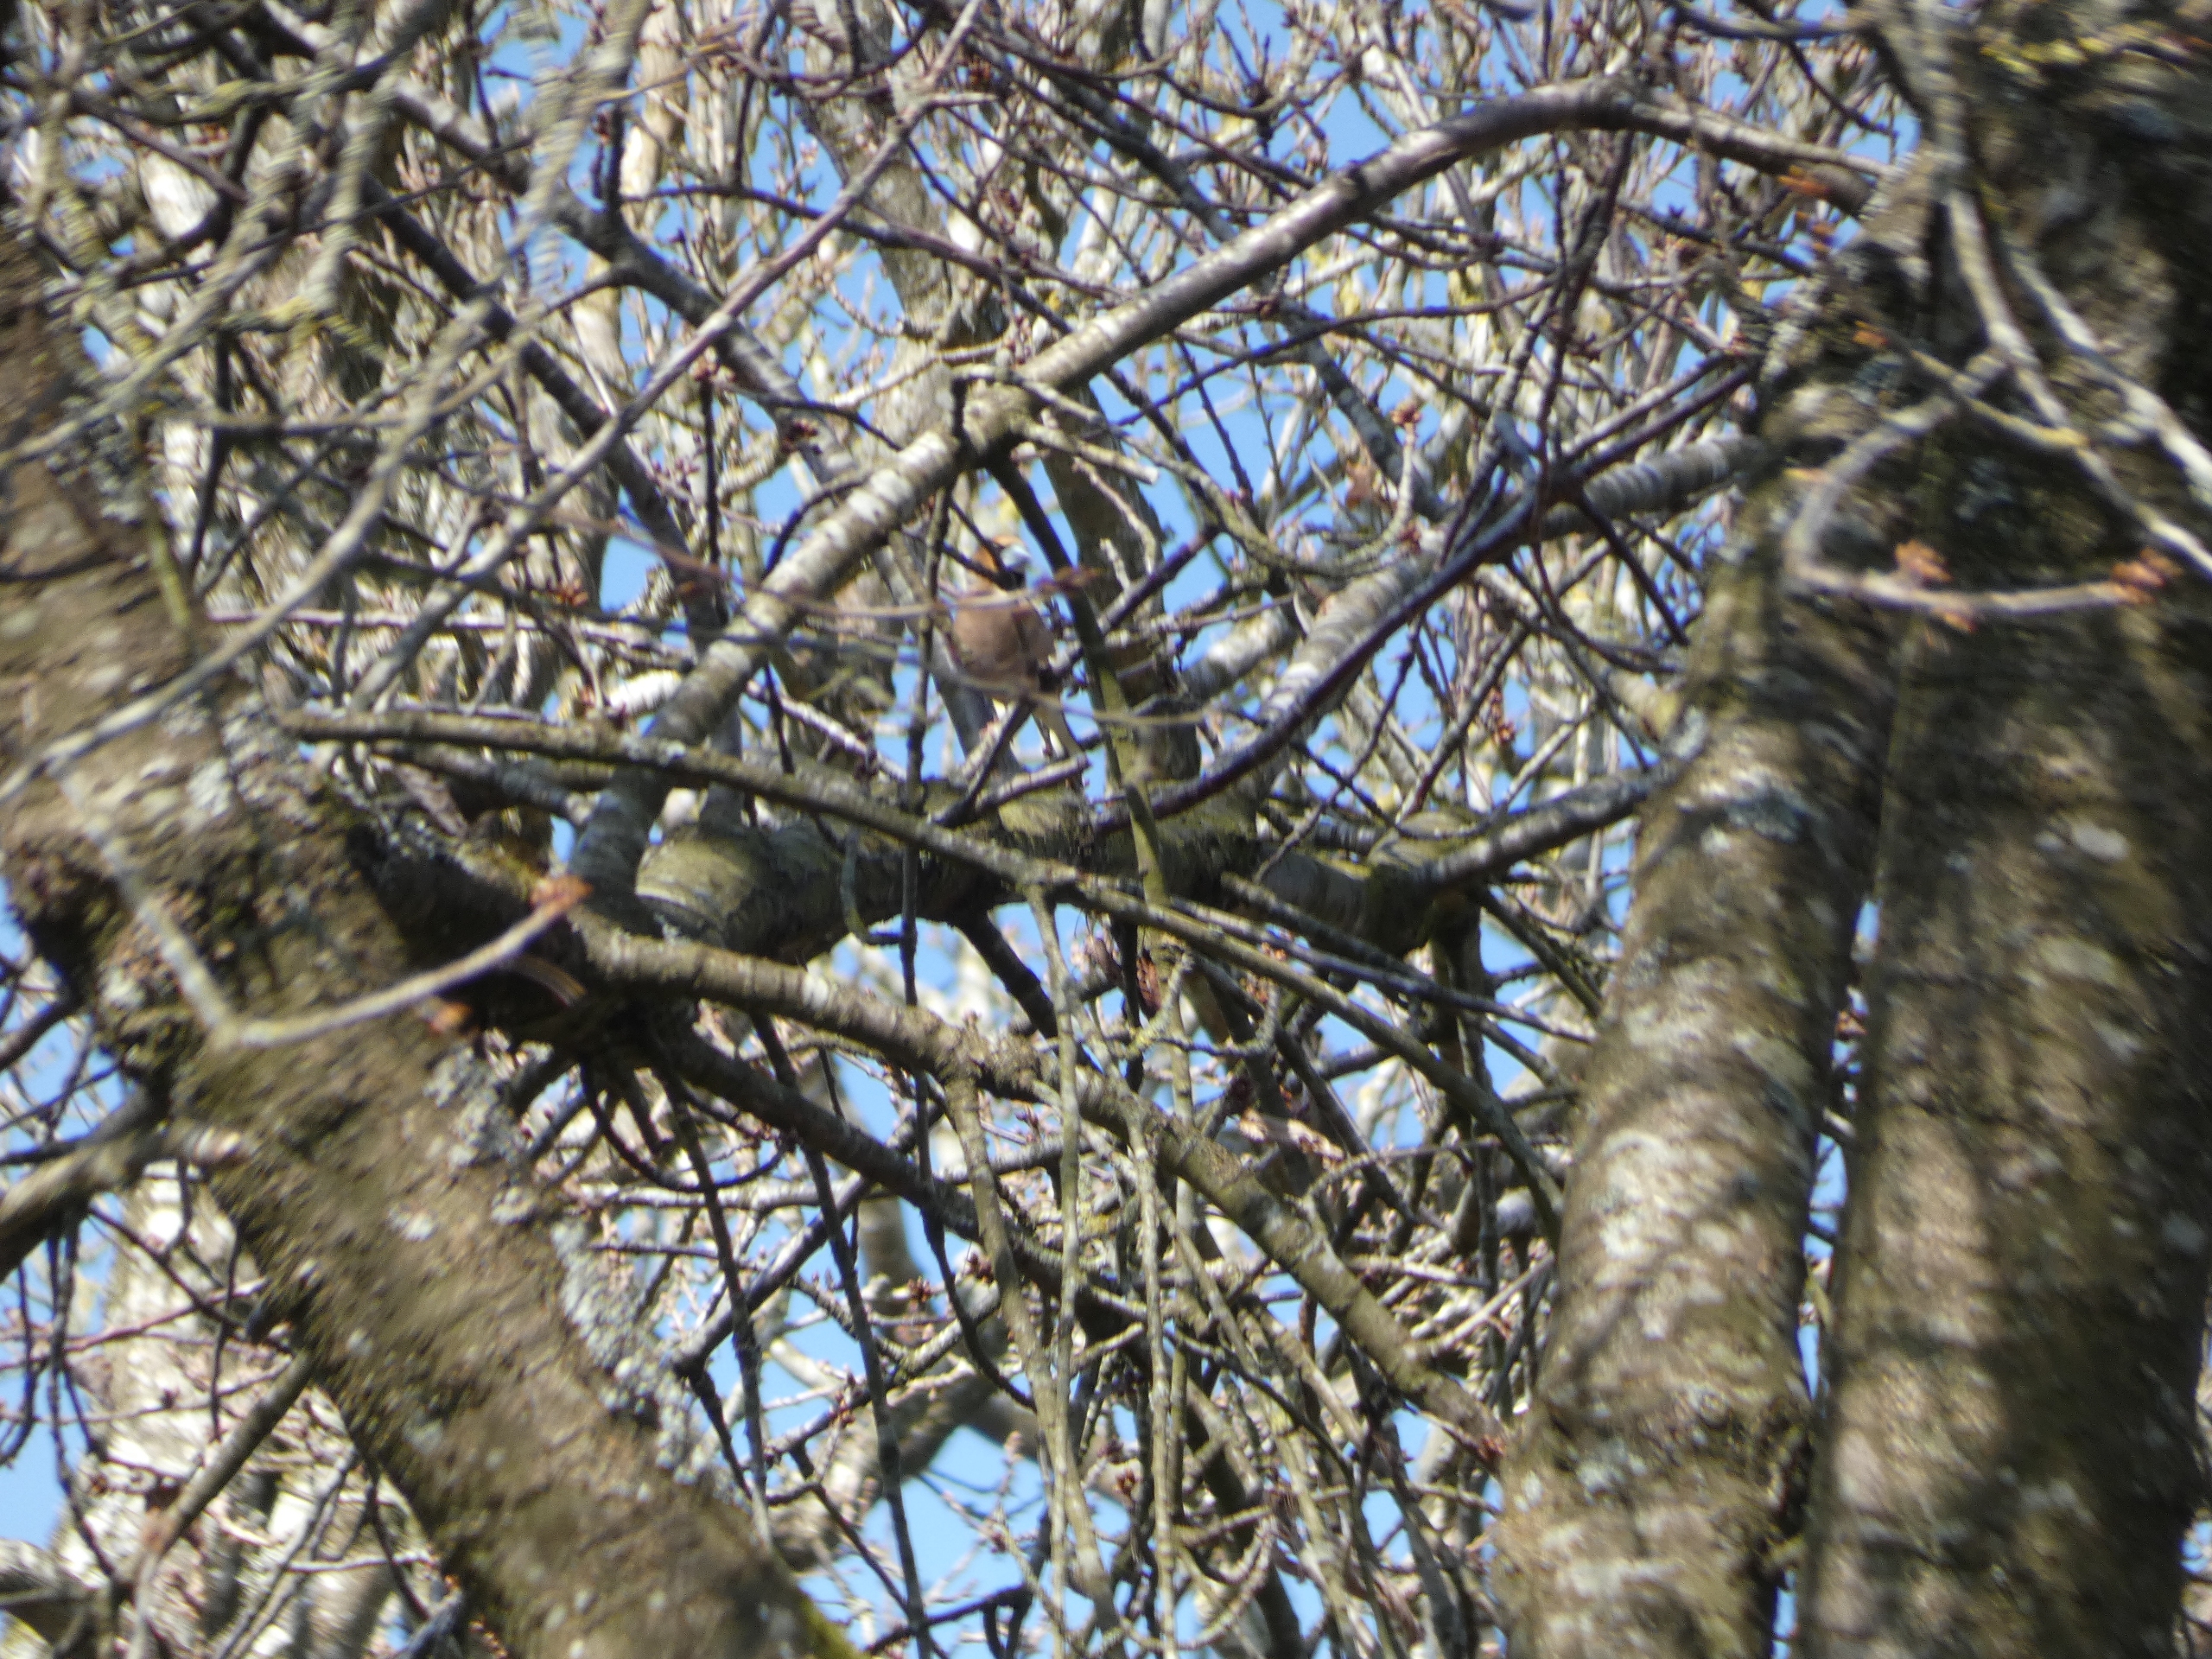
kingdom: Animalia
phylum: Chordata
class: Aves
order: Passeriformes
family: Fringillidae
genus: Coccothraustes
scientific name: Coccothraustes coccothraustes
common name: Kernebider
